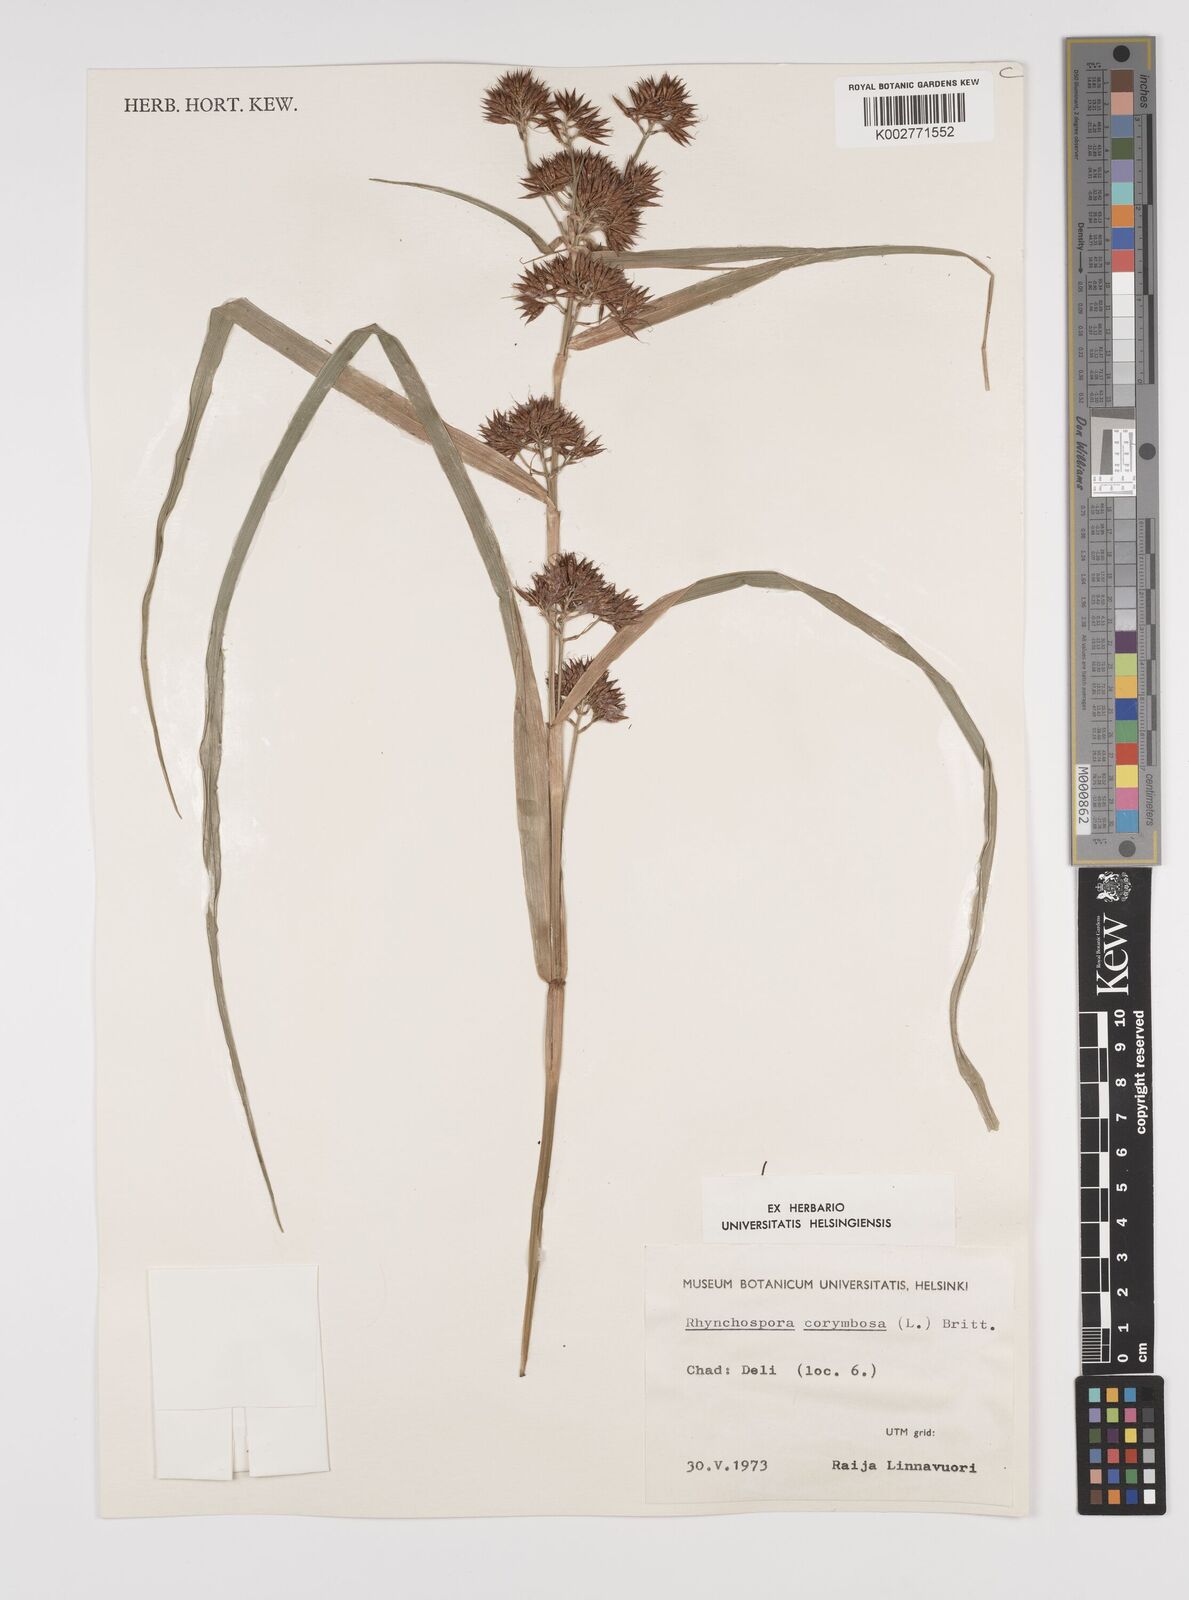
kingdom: Plantae
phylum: Tracheophyta
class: Liliopsida
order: Poales
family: Cyperaceae
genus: Rhynchospora
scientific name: Rhynchospora corymbosa
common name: Golden beak sedge
